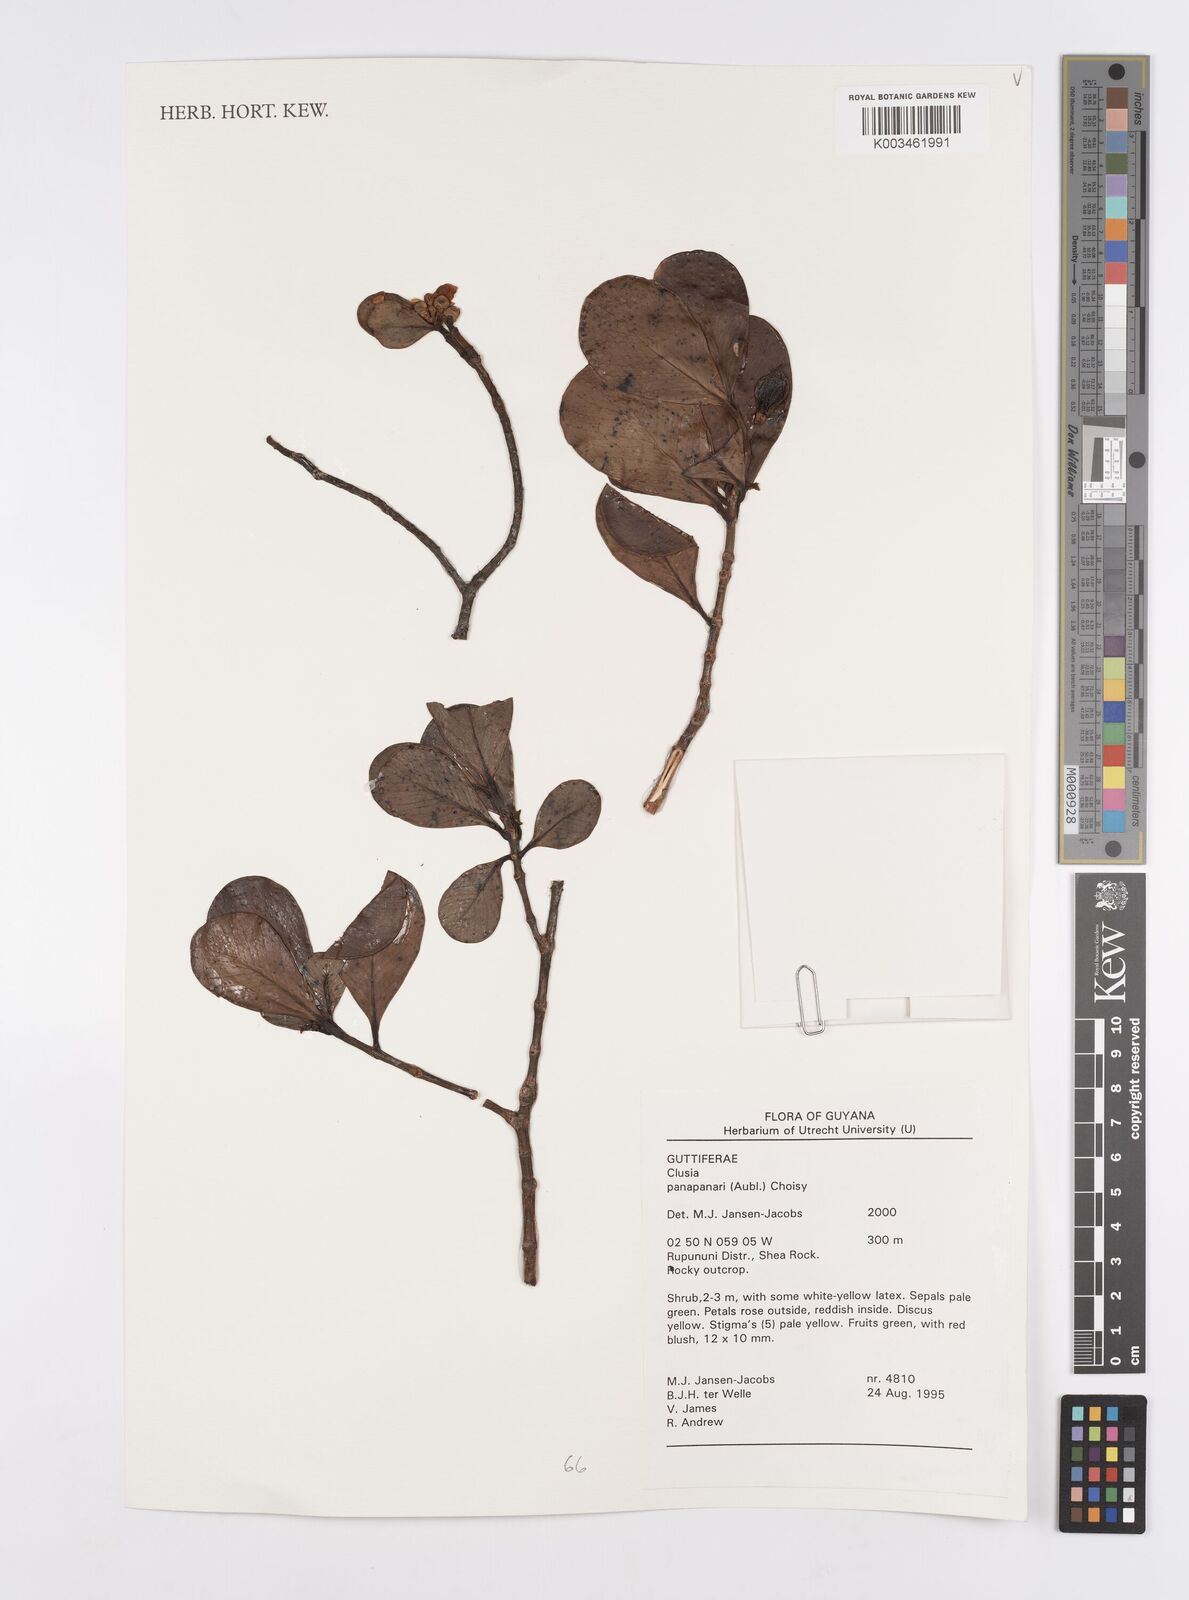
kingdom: Plantae
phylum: Tracheophyta
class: Magnoliopsida
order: Malpighiales
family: Clusiaceae
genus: Clusia
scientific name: Clusia panapanari
